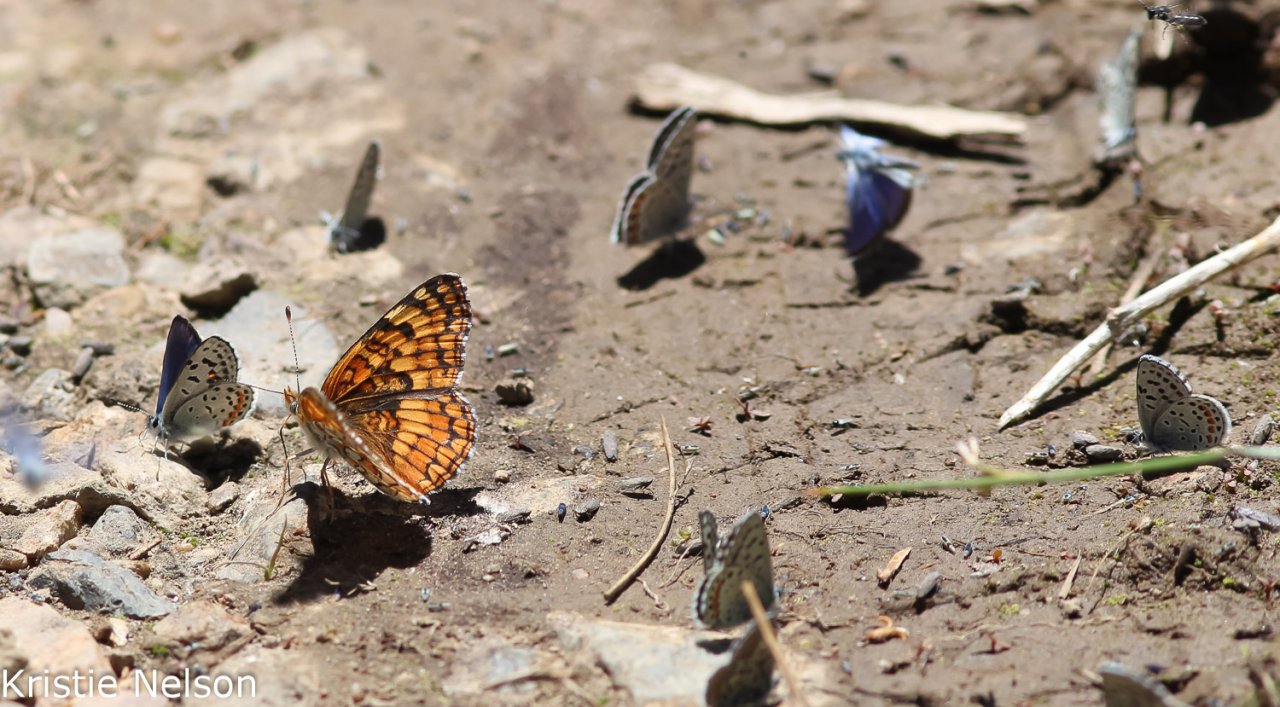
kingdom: Animalia
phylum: Arthropoda
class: Insecta
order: Lepidoptera
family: Nymphalidae
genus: Chlosyne
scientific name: Chlosyne acastus
